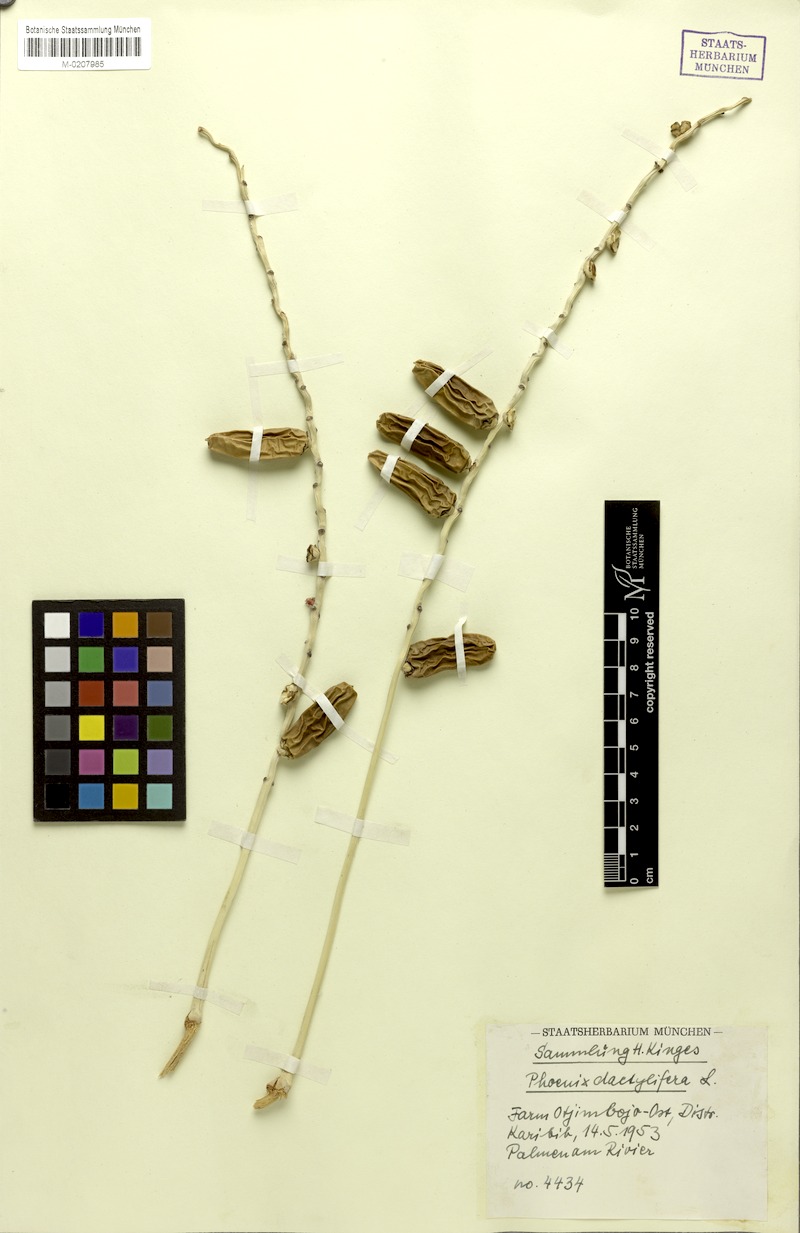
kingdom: Plantae
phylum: Tracheophyta
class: Liliopsida
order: Arecales
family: Arecaceae
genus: Phoenix
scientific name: Phoenix dactylifera
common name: Date palm
